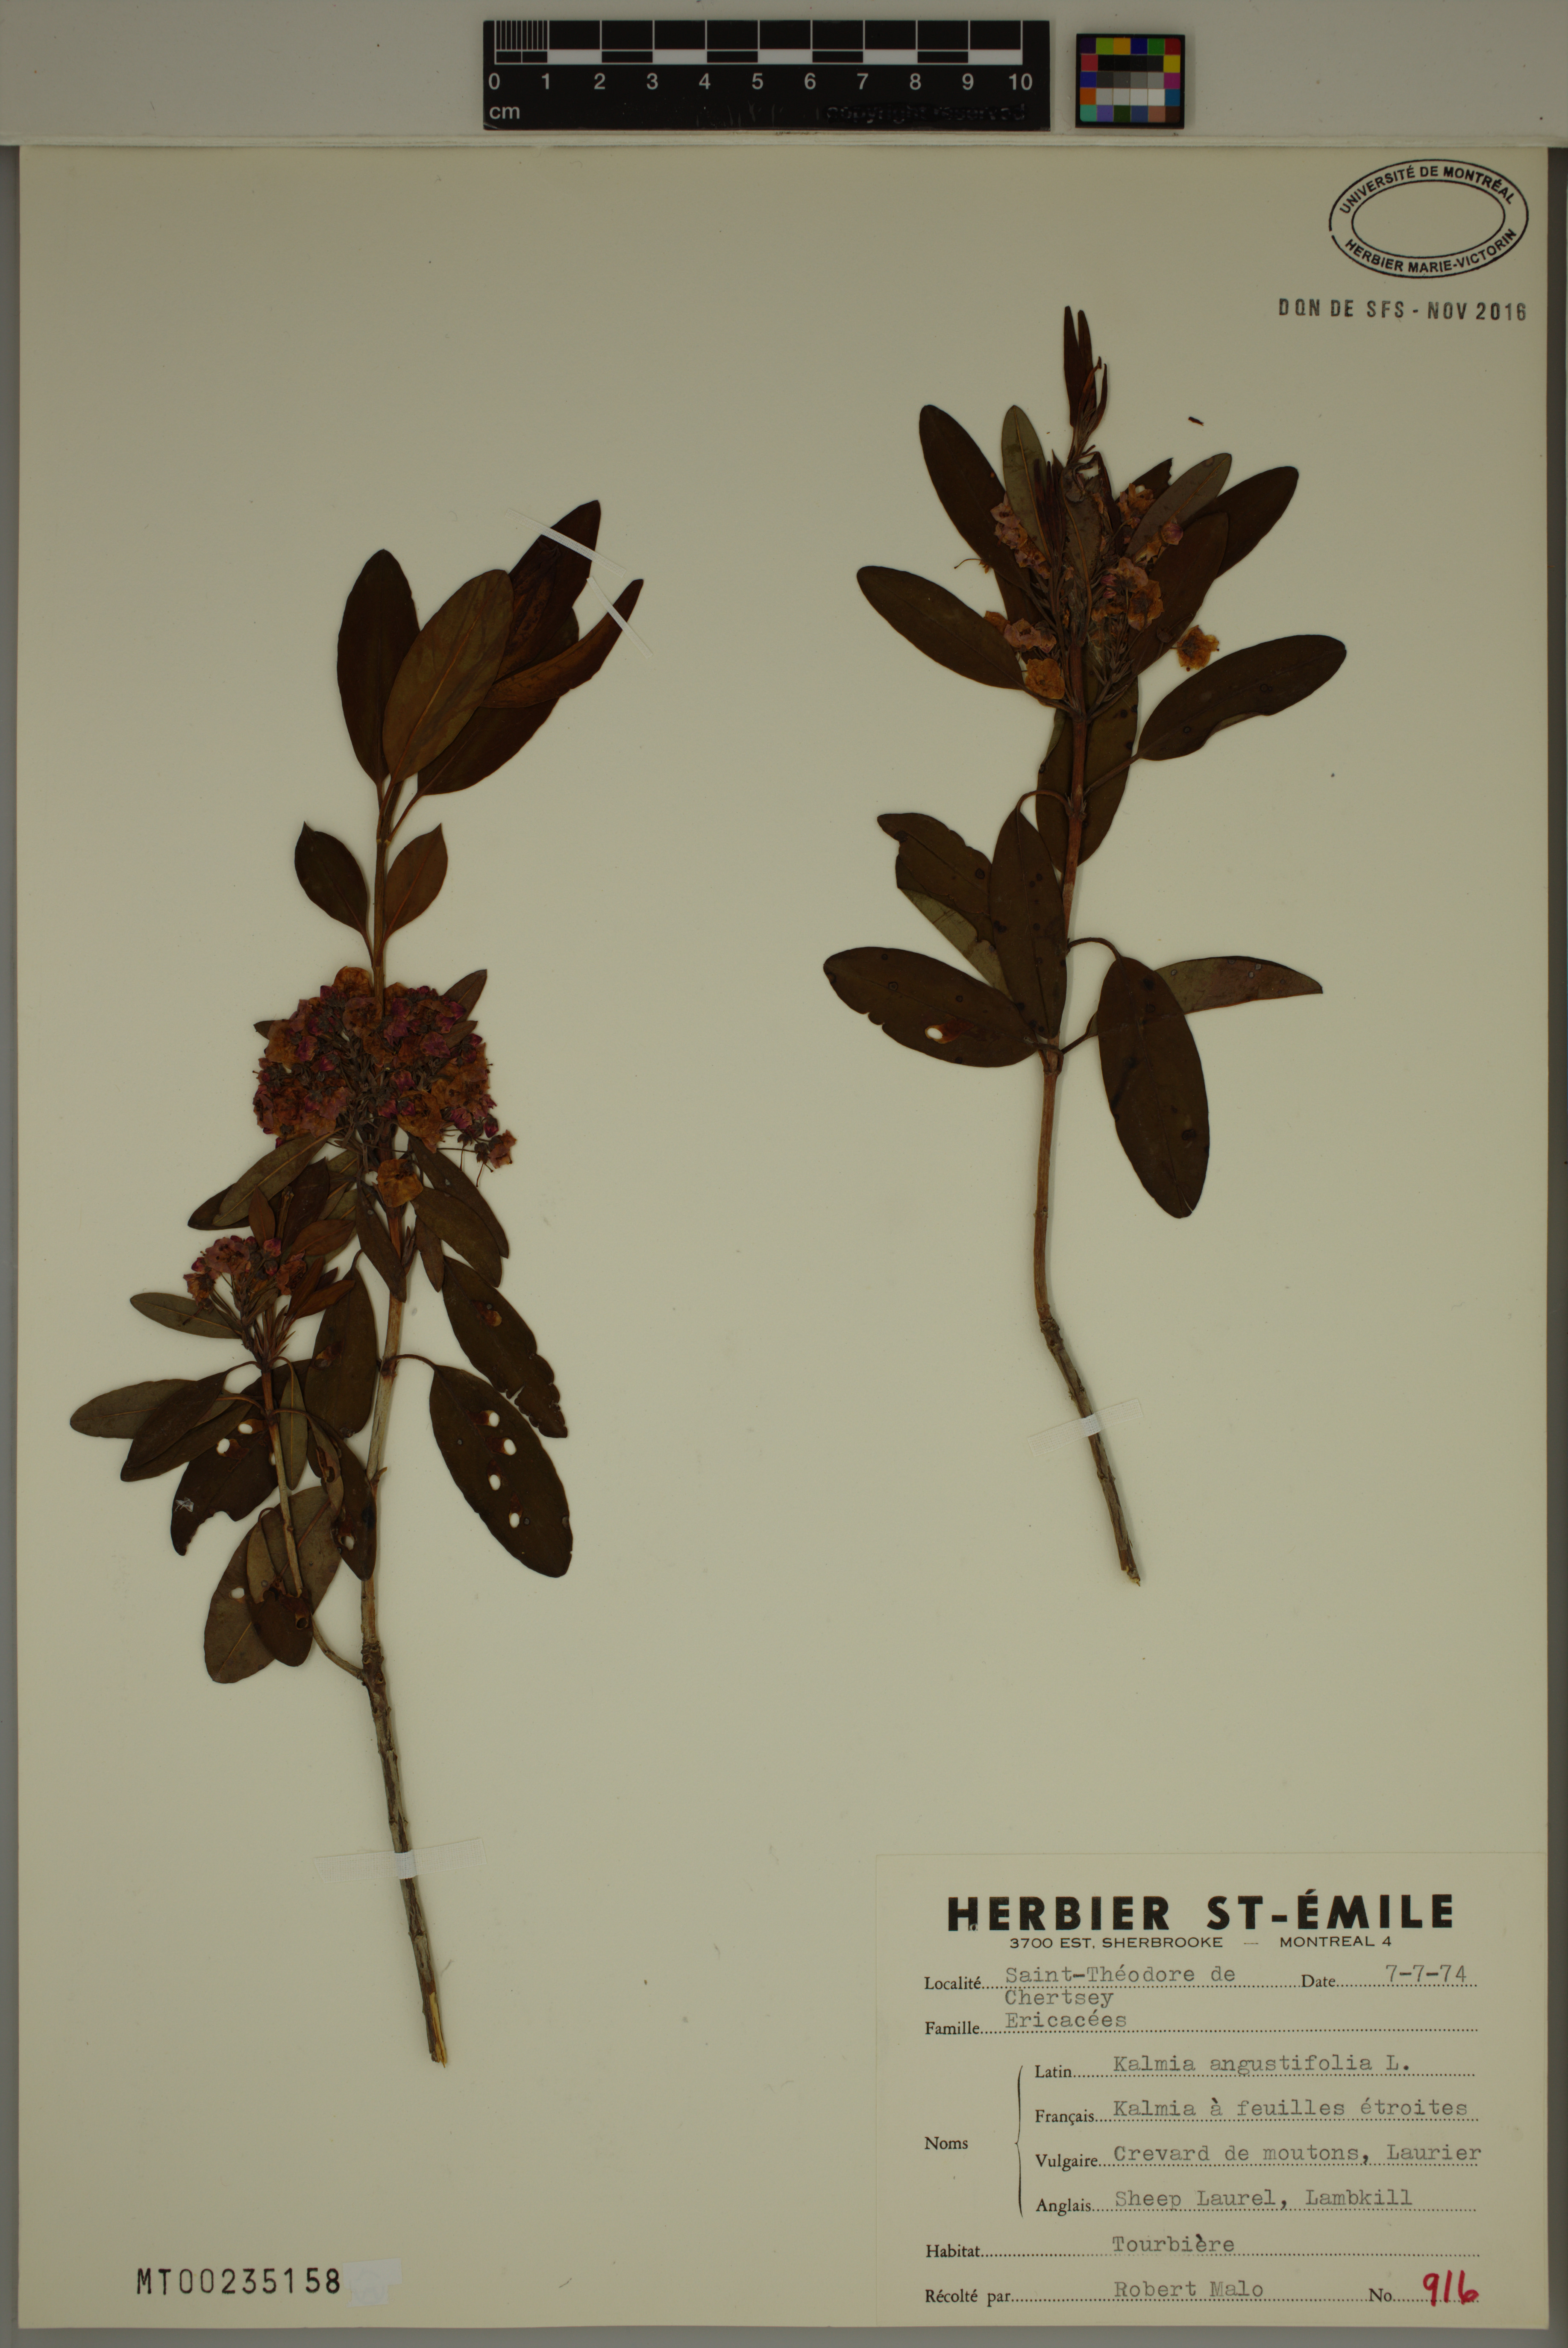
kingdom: Plantae
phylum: Tracheophyta
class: Magnoliopsida
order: Ericales
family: Ericaceae
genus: Kalmia
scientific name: Kalmia angustifolia
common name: Sheep-laurel
